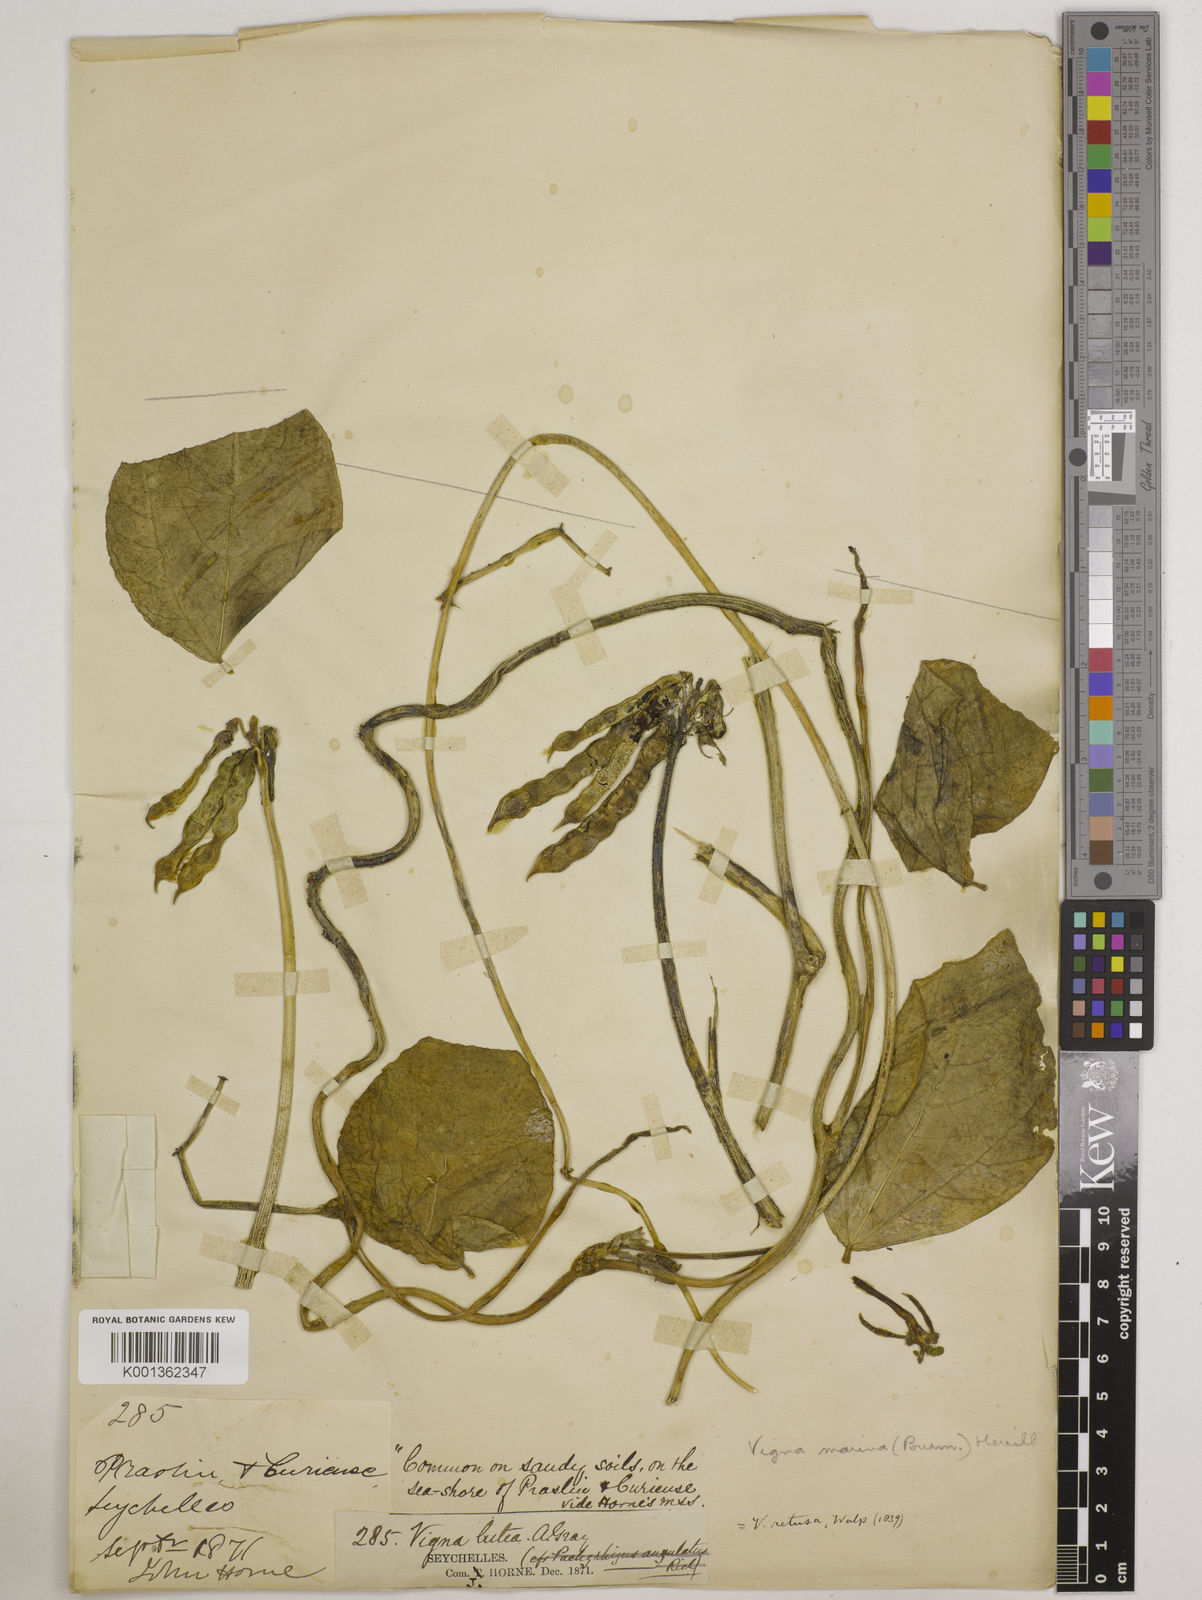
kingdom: Plantae
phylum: Tracheophyta
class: Magnoliopsida
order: Fabales
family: Fabaceae
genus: Vigna
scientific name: Vigna marina
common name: Dune-bean
